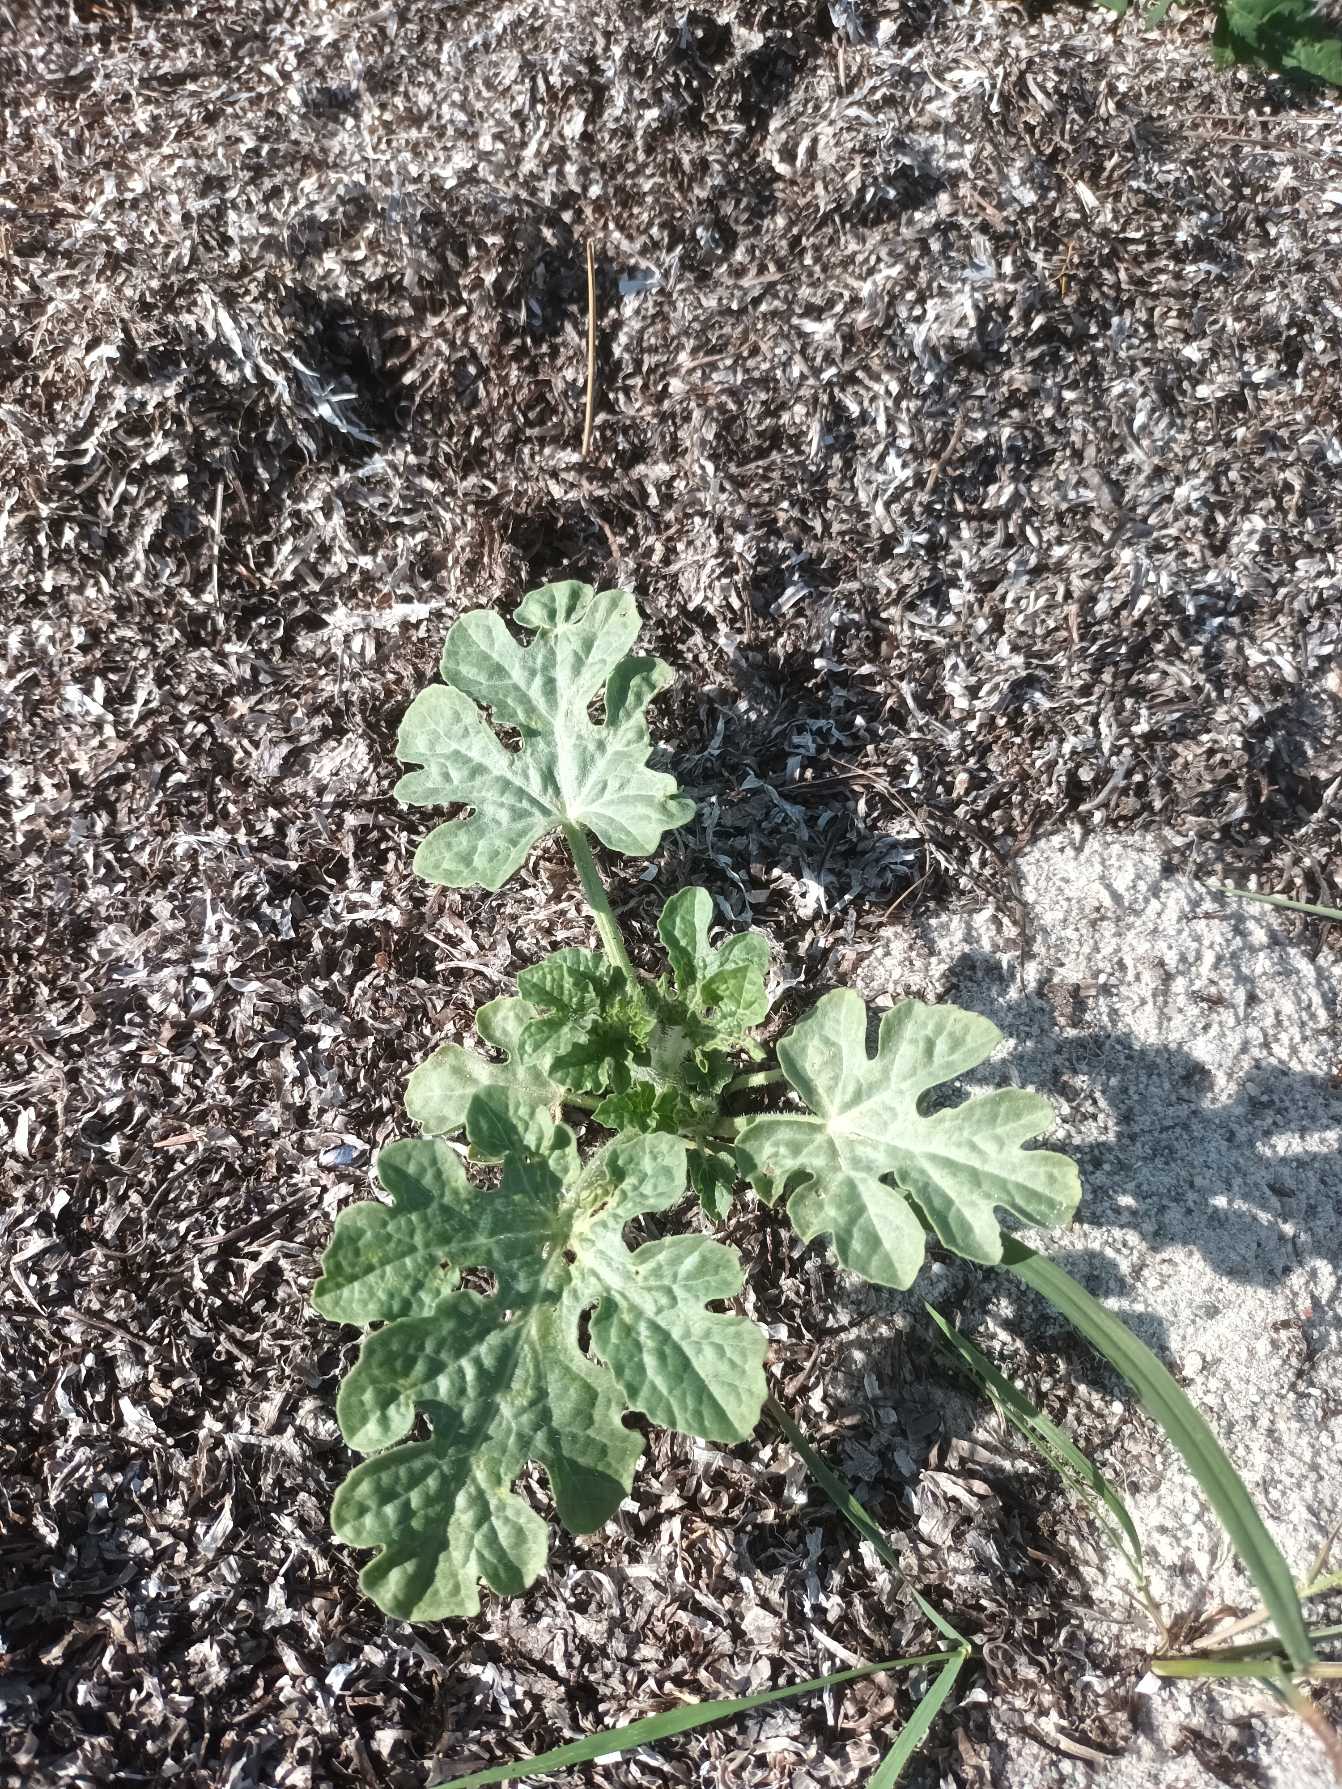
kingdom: Plantae
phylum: Tracheophyta
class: Magnoliopsida
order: Cucurbitales
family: Cucurbitaceae
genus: Citrullus
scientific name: Citrullus lanatus
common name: Vandmelon
